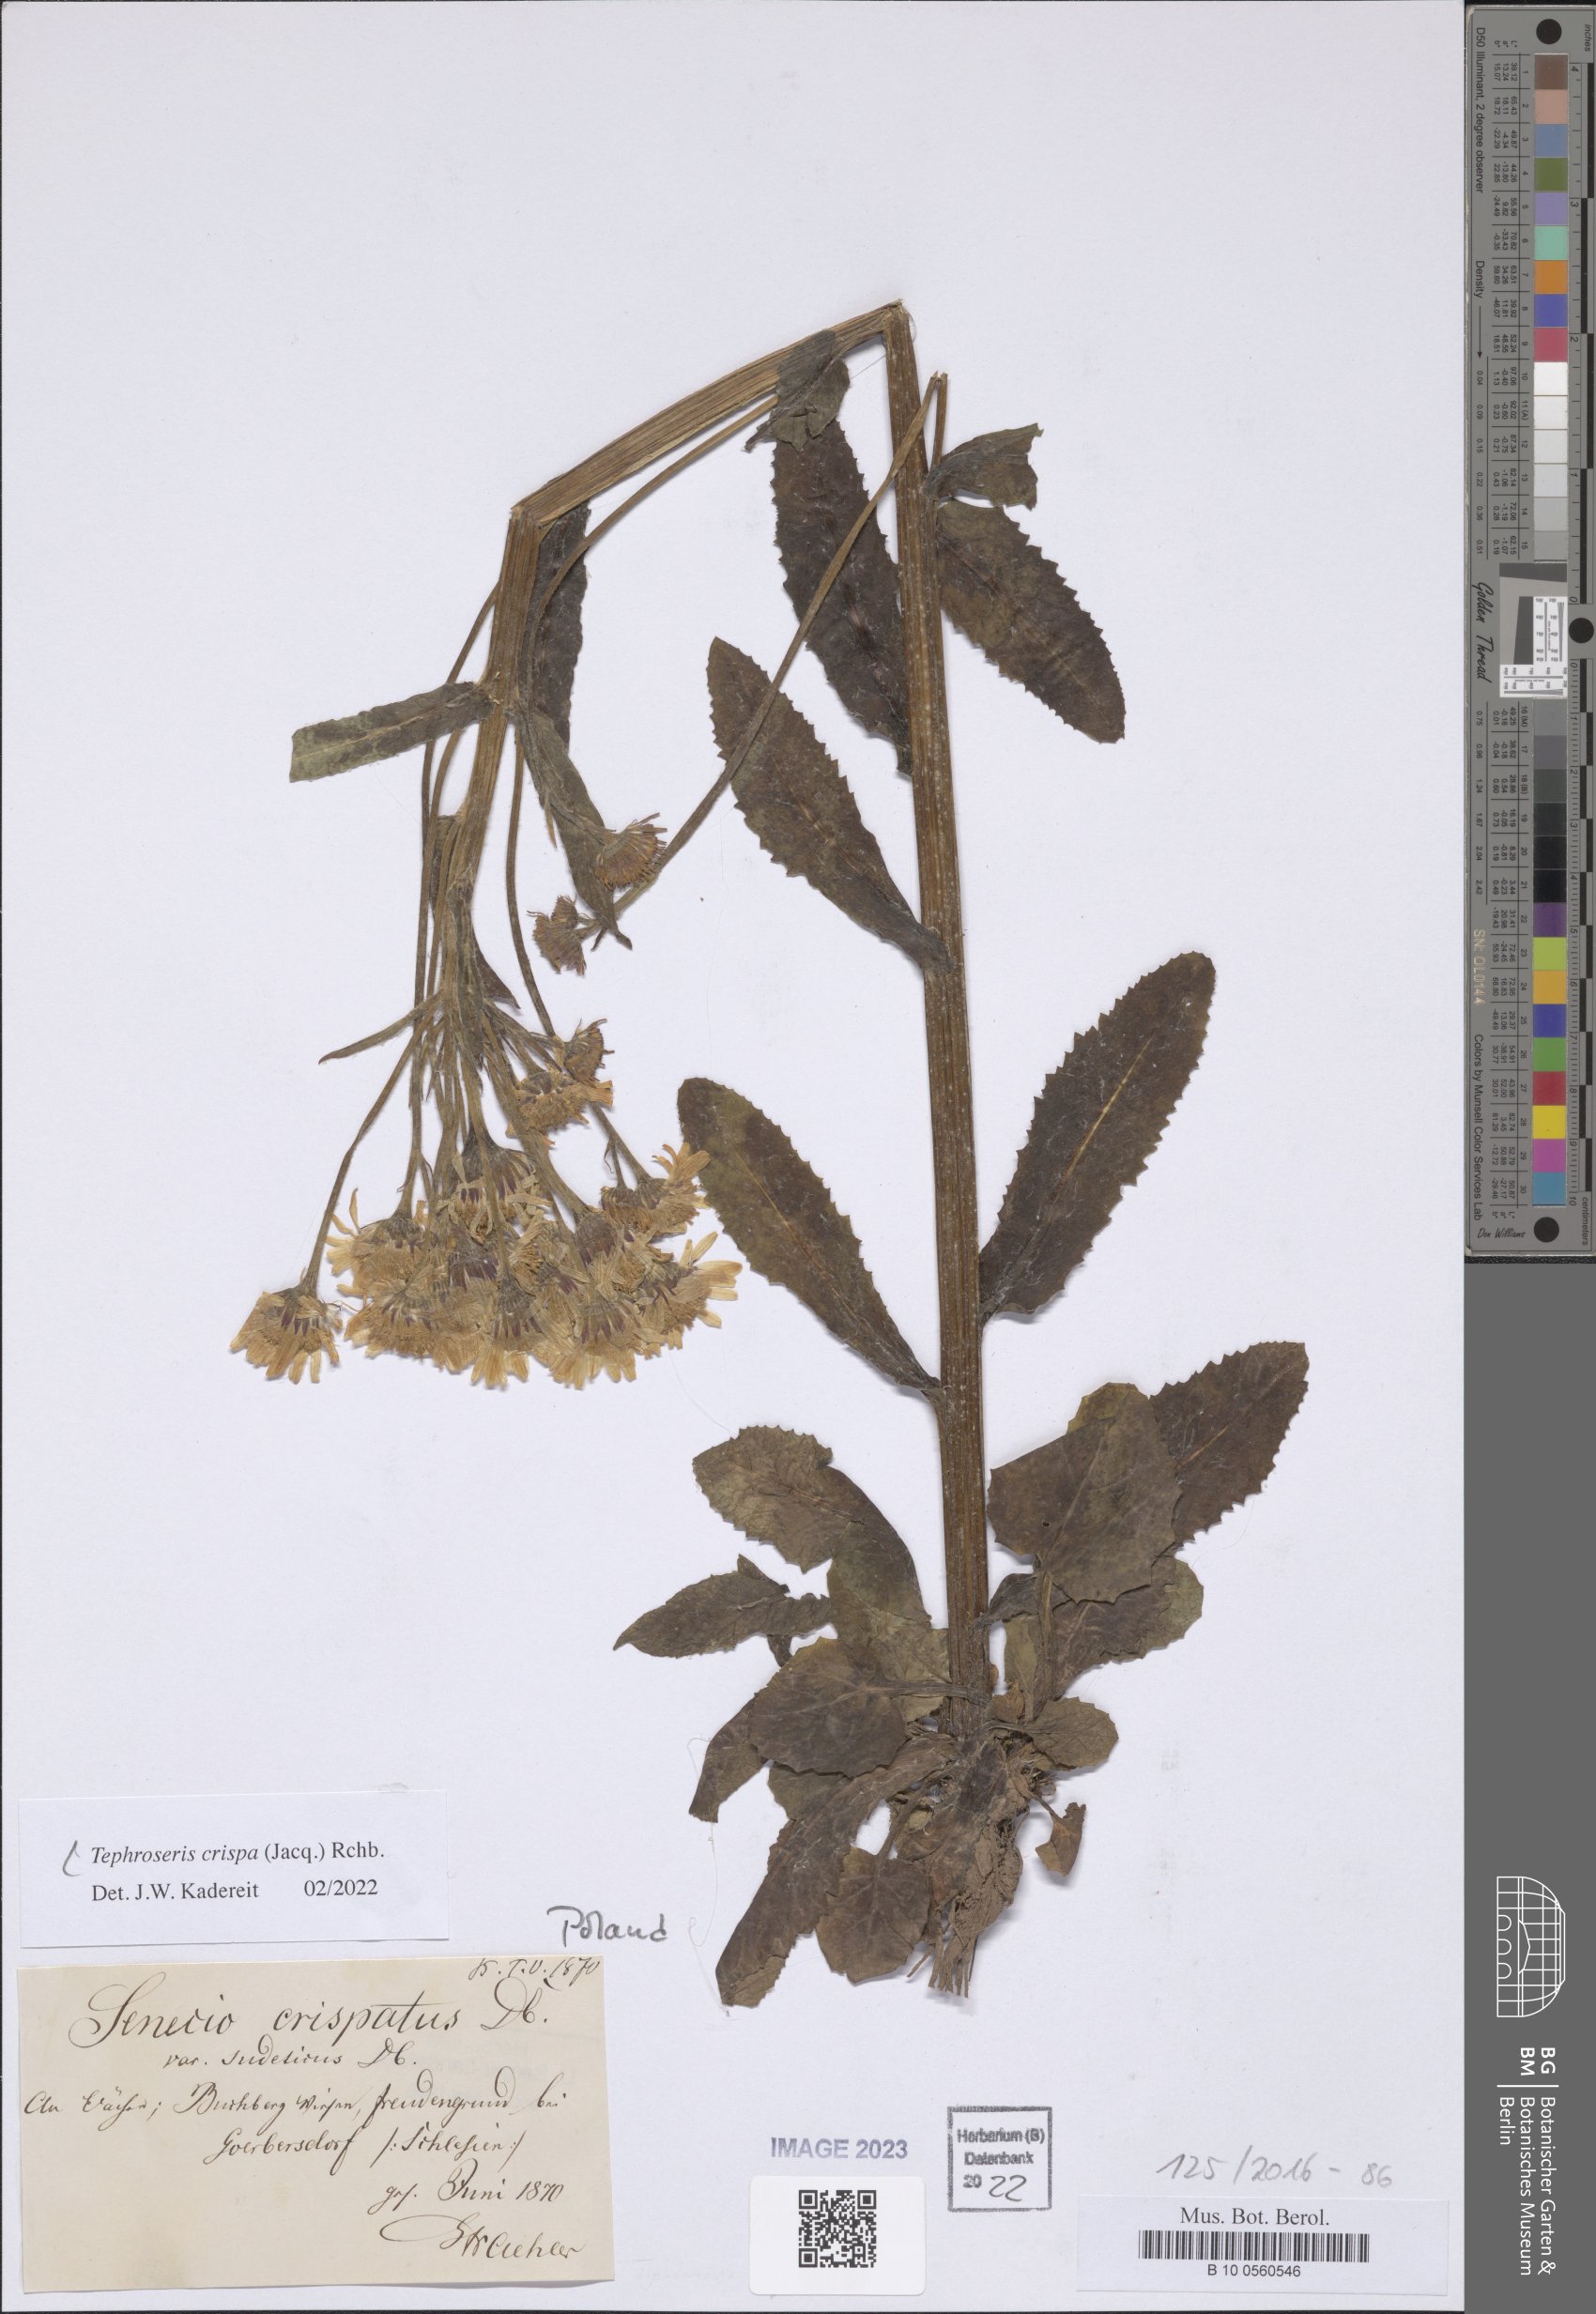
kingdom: Plantae
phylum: Tracheophyta
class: Magnoliopsida
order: Asterales
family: Asteraceae
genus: Tephroseris
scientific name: Tephroseris crispa
